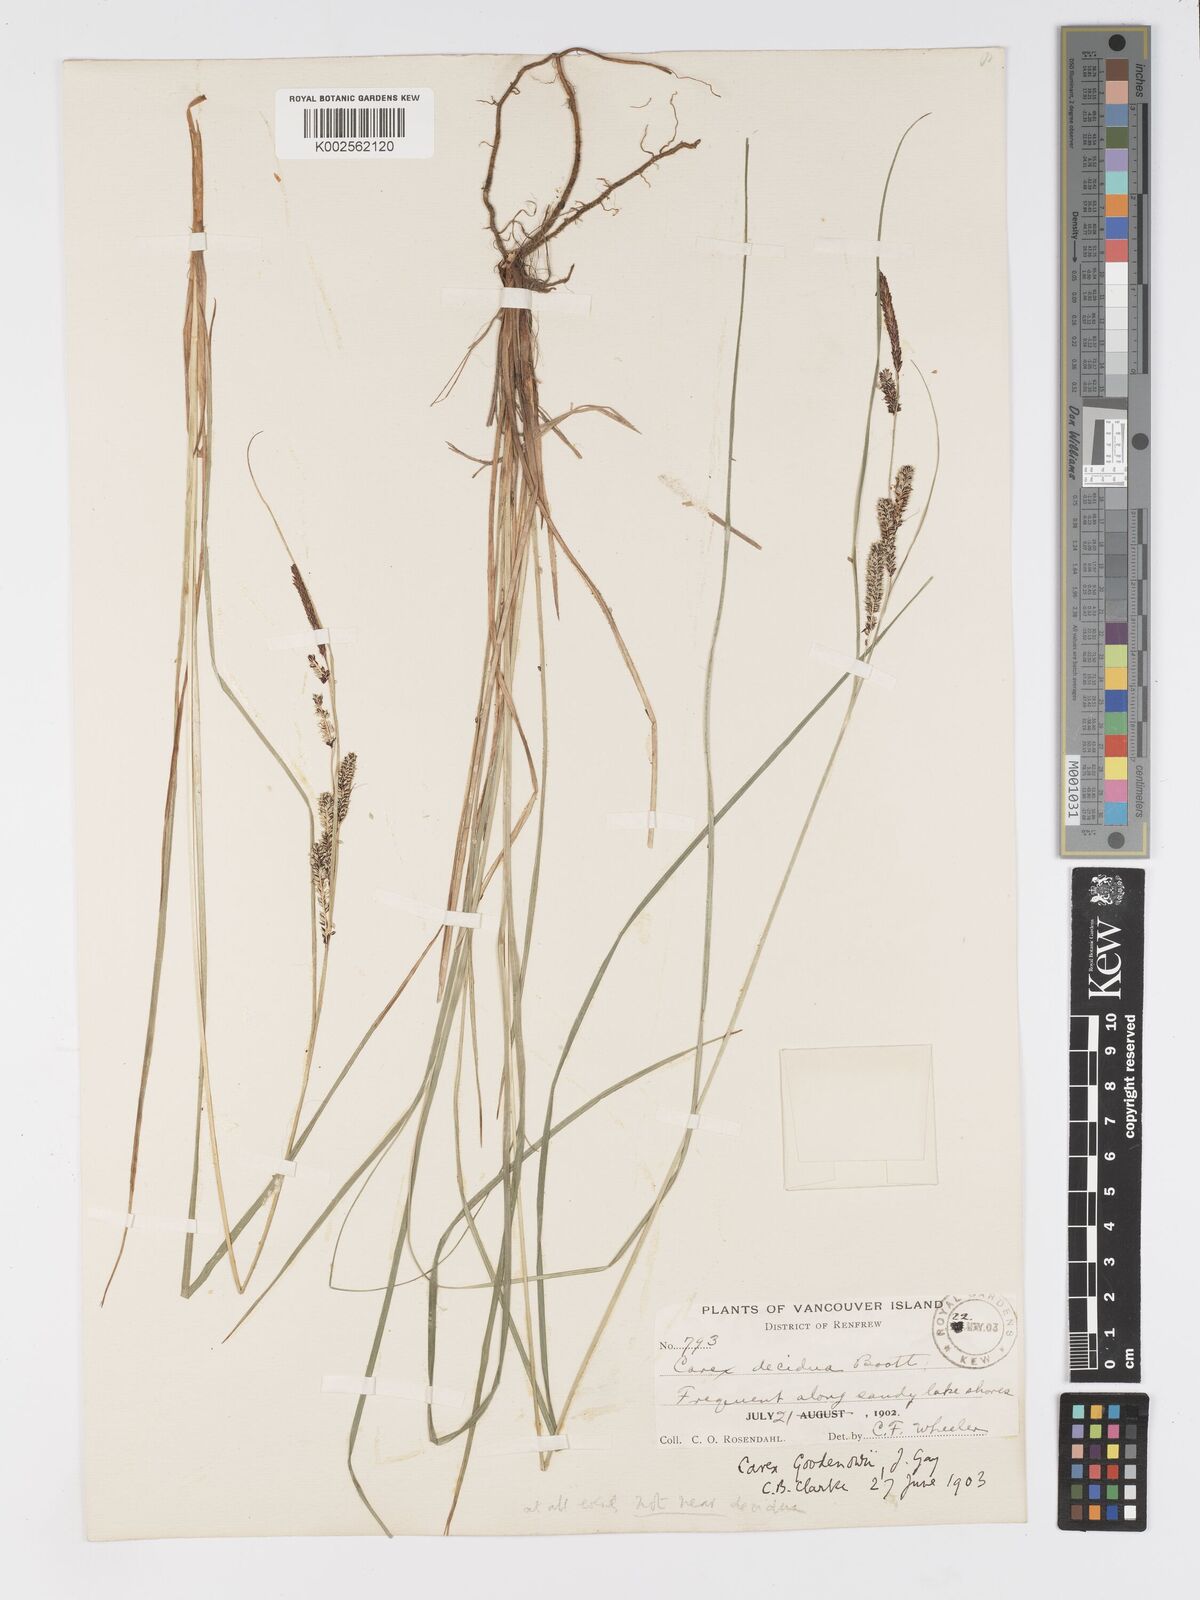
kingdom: Plantae
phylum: Tracheophyta
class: Liliopsida
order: Poales
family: Cyperaceae
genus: Carex
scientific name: Carex kelloggii
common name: Kellogg's sedge
